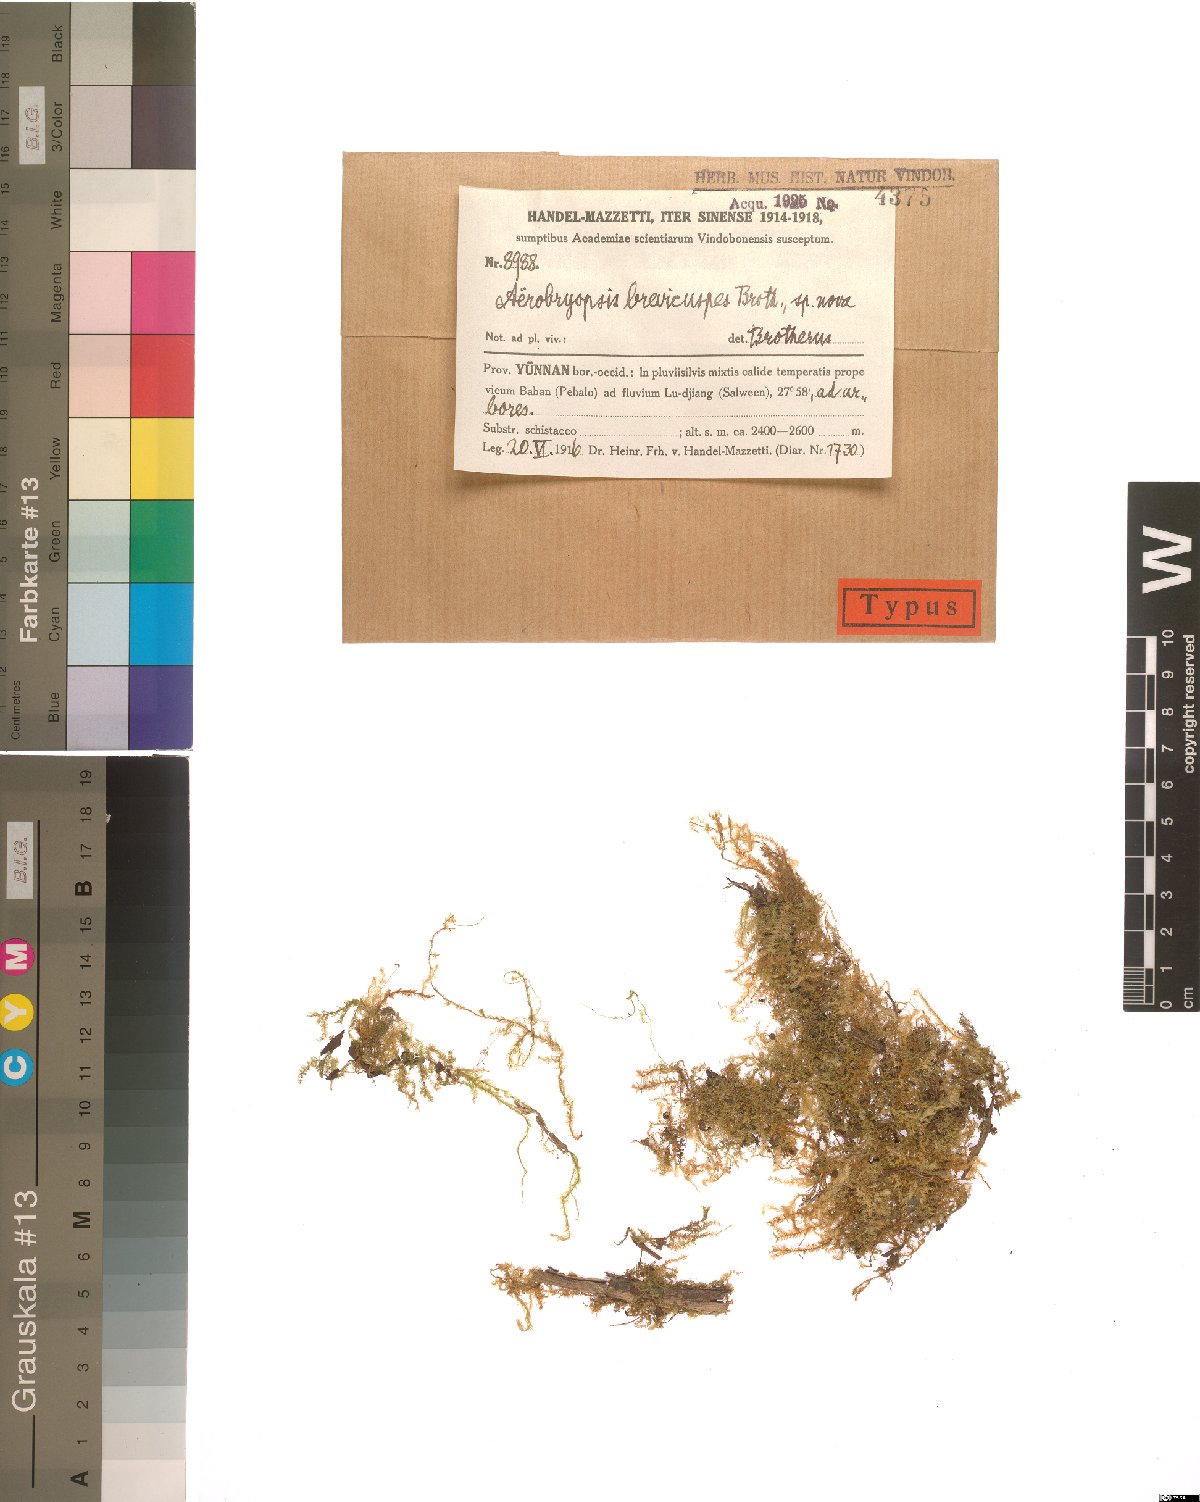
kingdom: Plantae
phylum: Bryophyta
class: Bryopsida
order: Hypnales
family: Meteoriaceae
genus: Pseudotrachypus
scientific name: Pseudotrachypus wallichii
